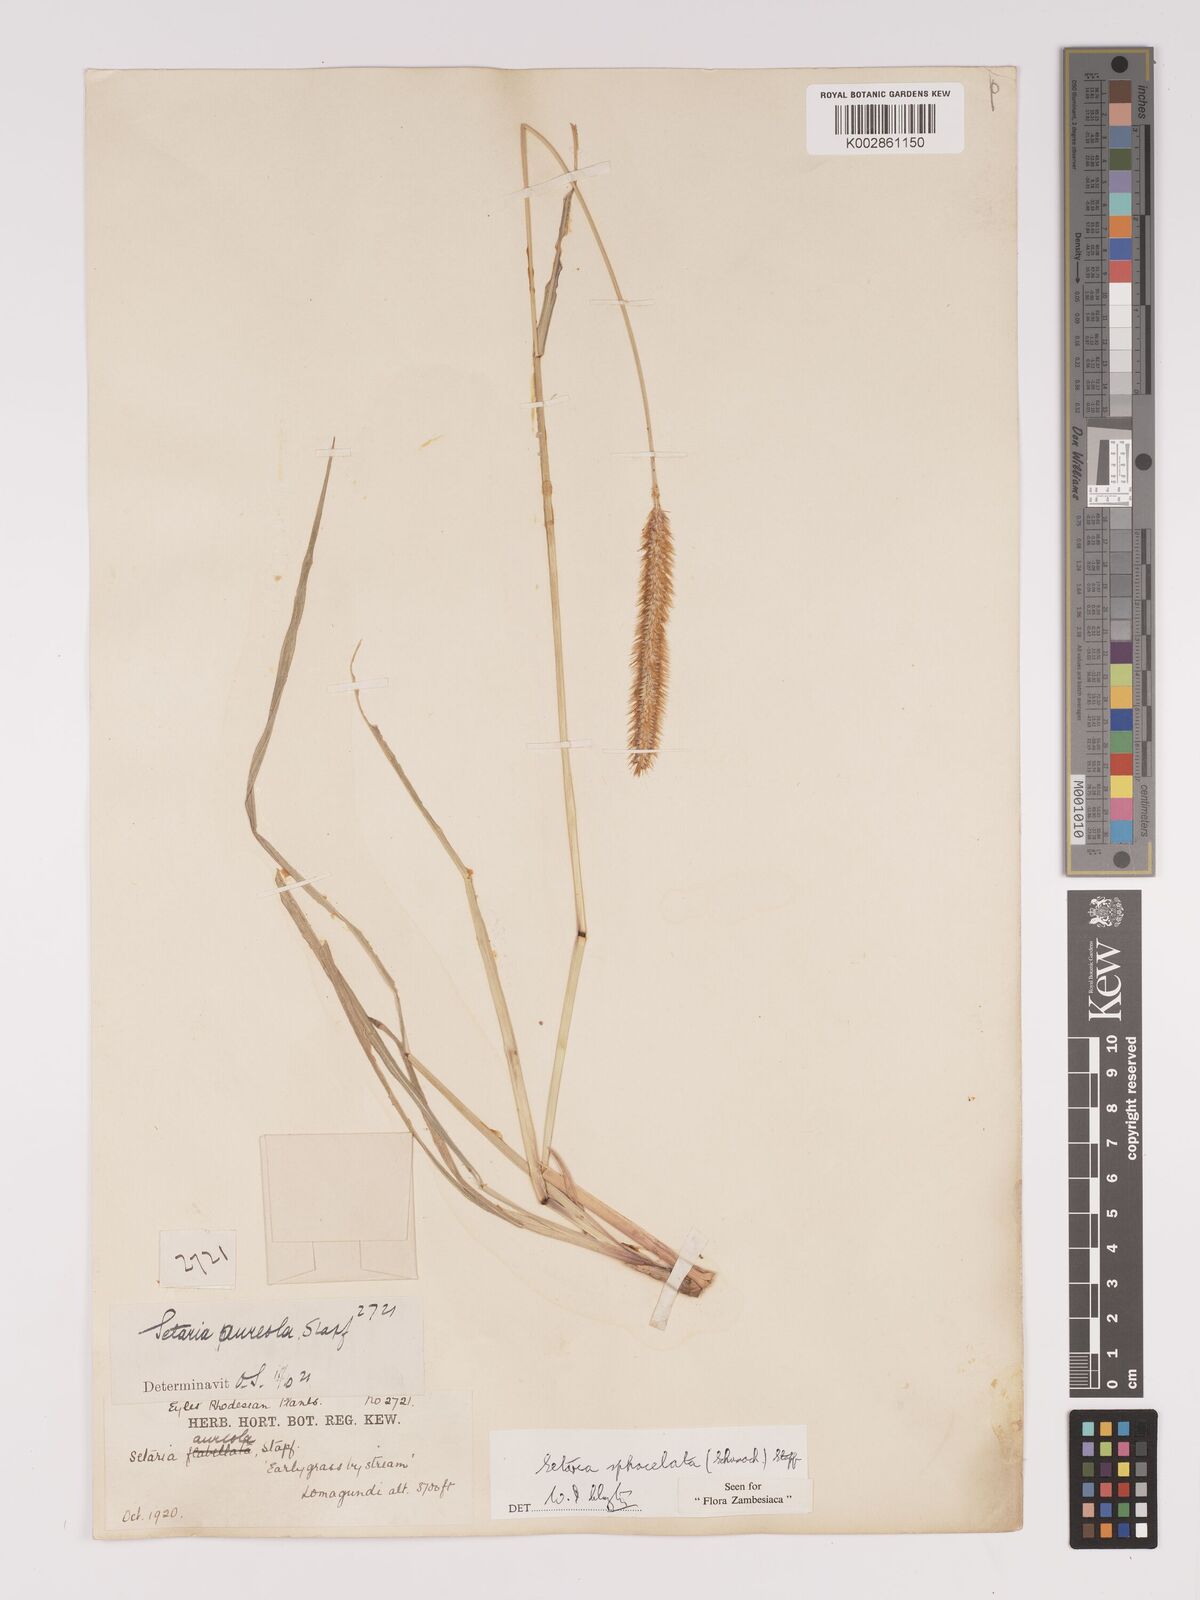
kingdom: Plantae
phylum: Tracheophyta
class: Liliopsida
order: Poales
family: Poaceae
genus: Setaria
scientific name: Setaria sphacelata
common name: African bristlegrass
